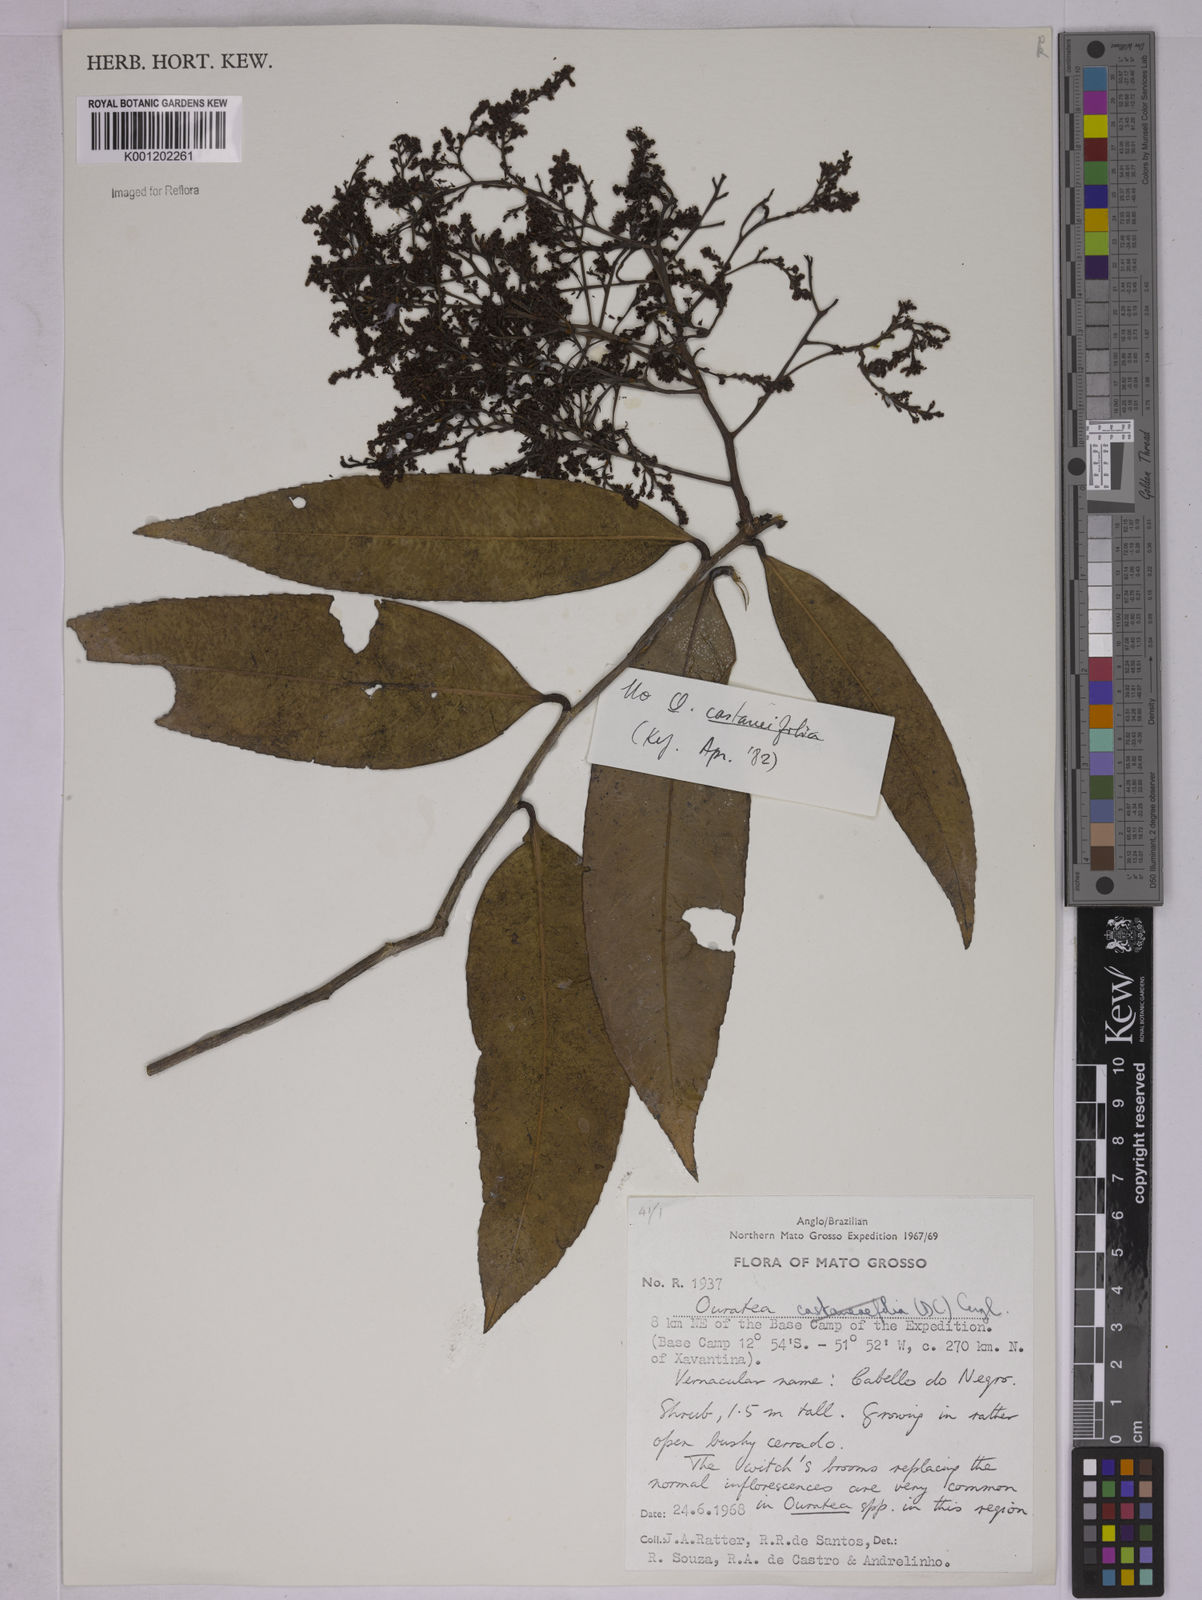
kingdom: Plantae
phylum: Tracheophyta
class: Magnoliopsida
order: Malpighiales
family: Ochnaceae
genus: Ouratea
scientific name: Ouratea
